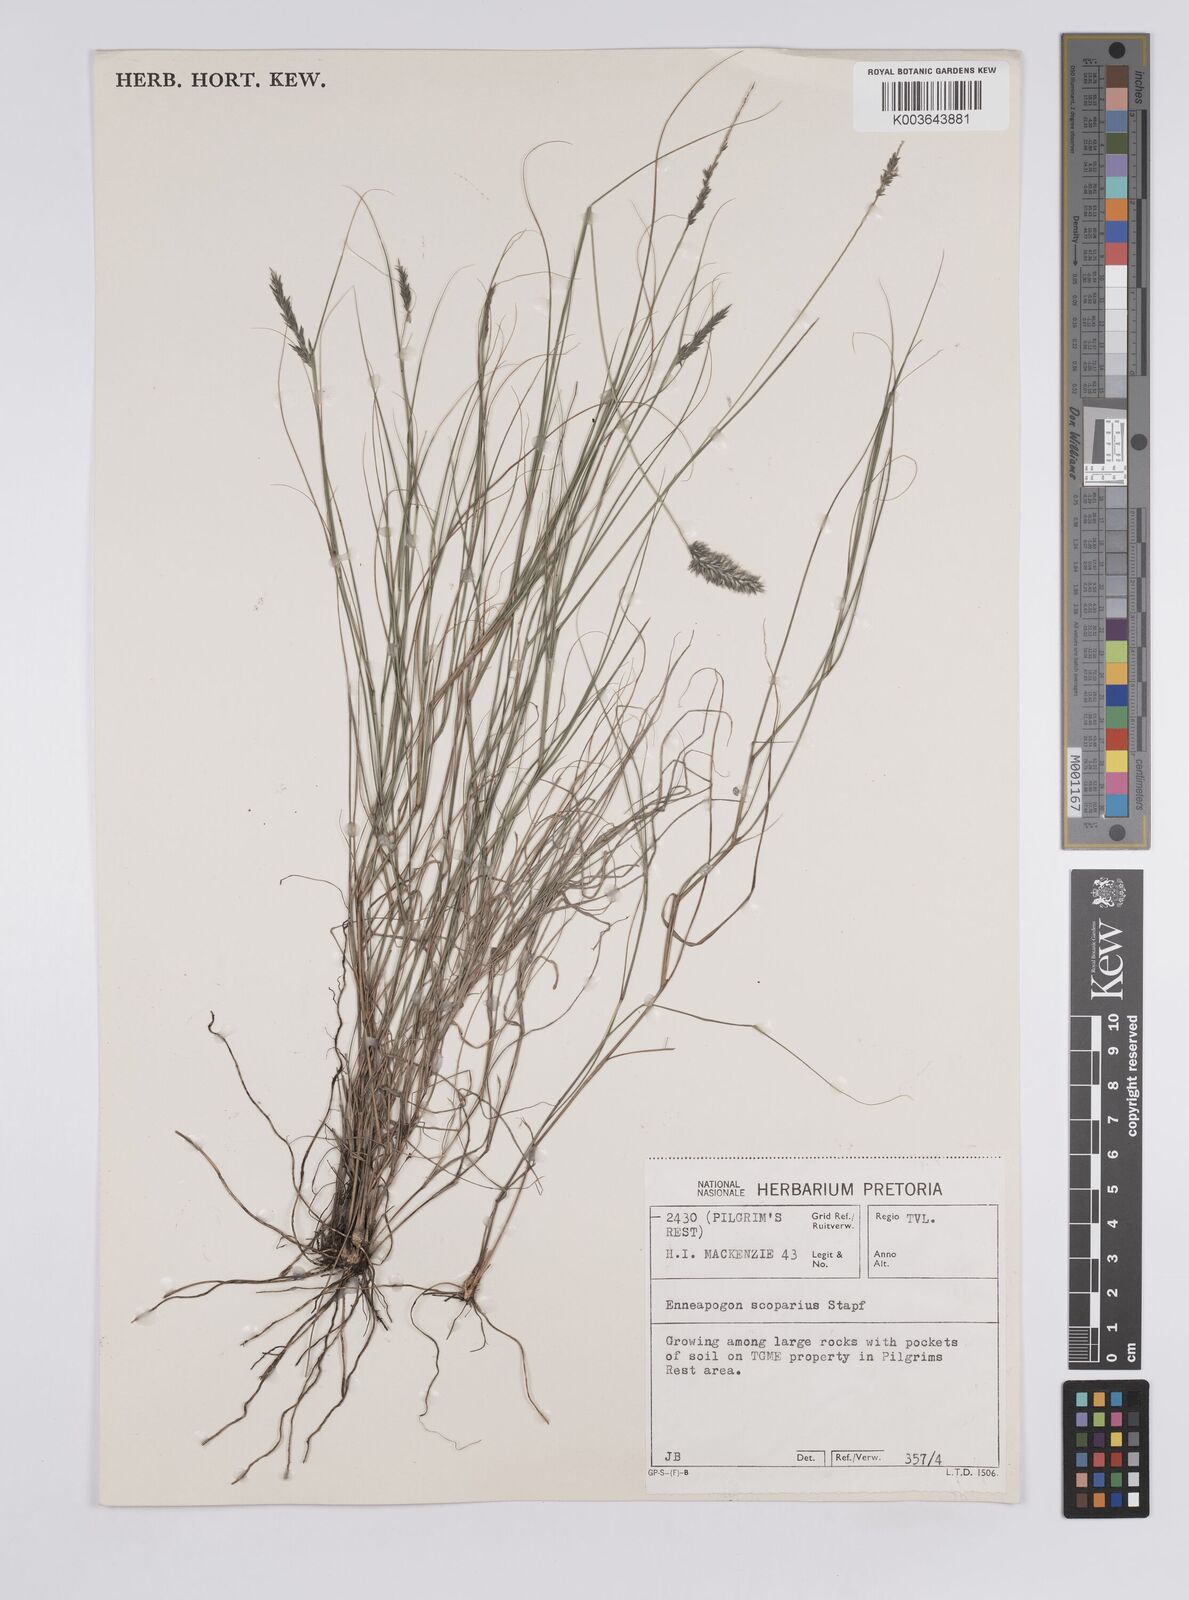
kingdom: Plantae
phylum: Tracheophyta
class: Liliopsida
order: Poales
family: Poaceae
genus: Enneapogon
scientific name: Enneapogon desvauxii
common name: Feather pappus grass
